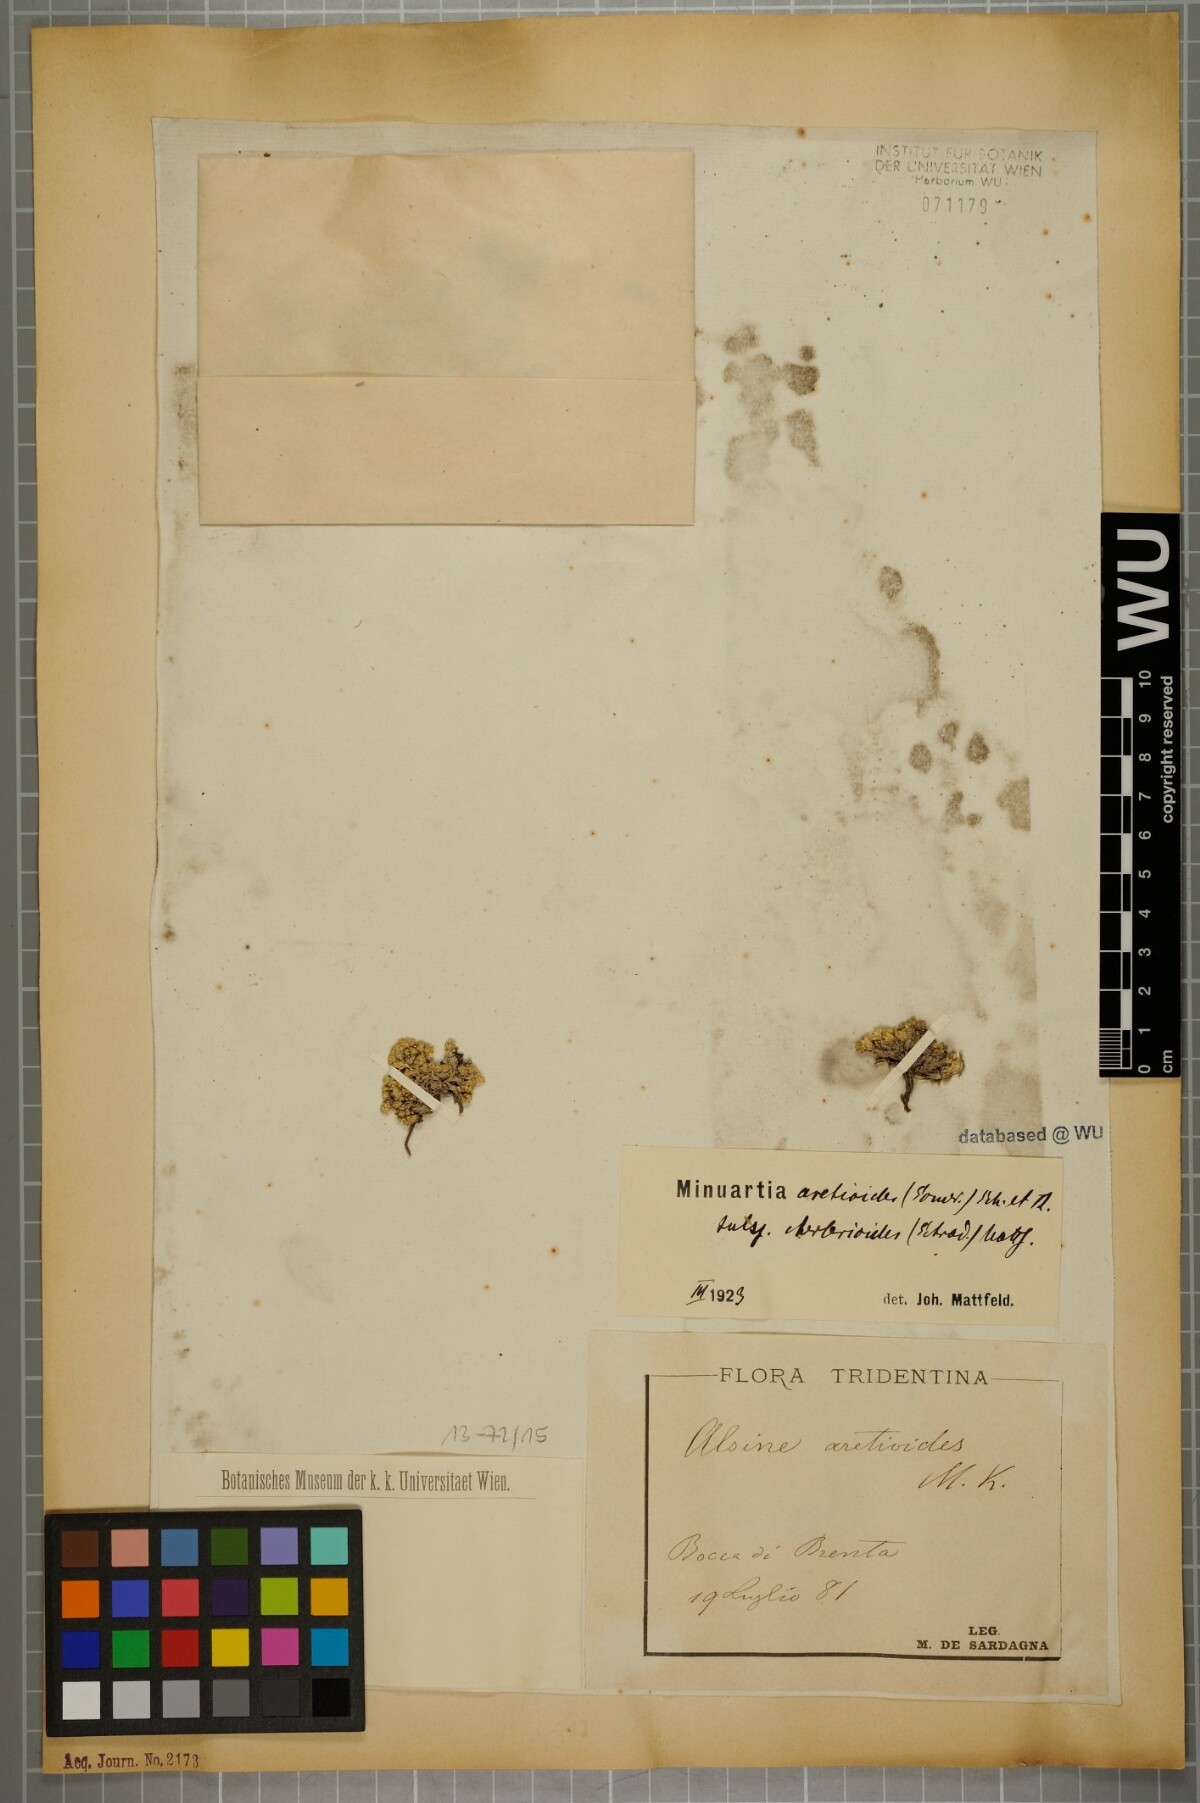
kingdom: Plantae
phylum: Tracheophyta
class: Magnoliopsida
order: Caryophyllales
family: Caryophyllaceae
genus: Facchinia
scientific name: Facchinia cherlerioides
